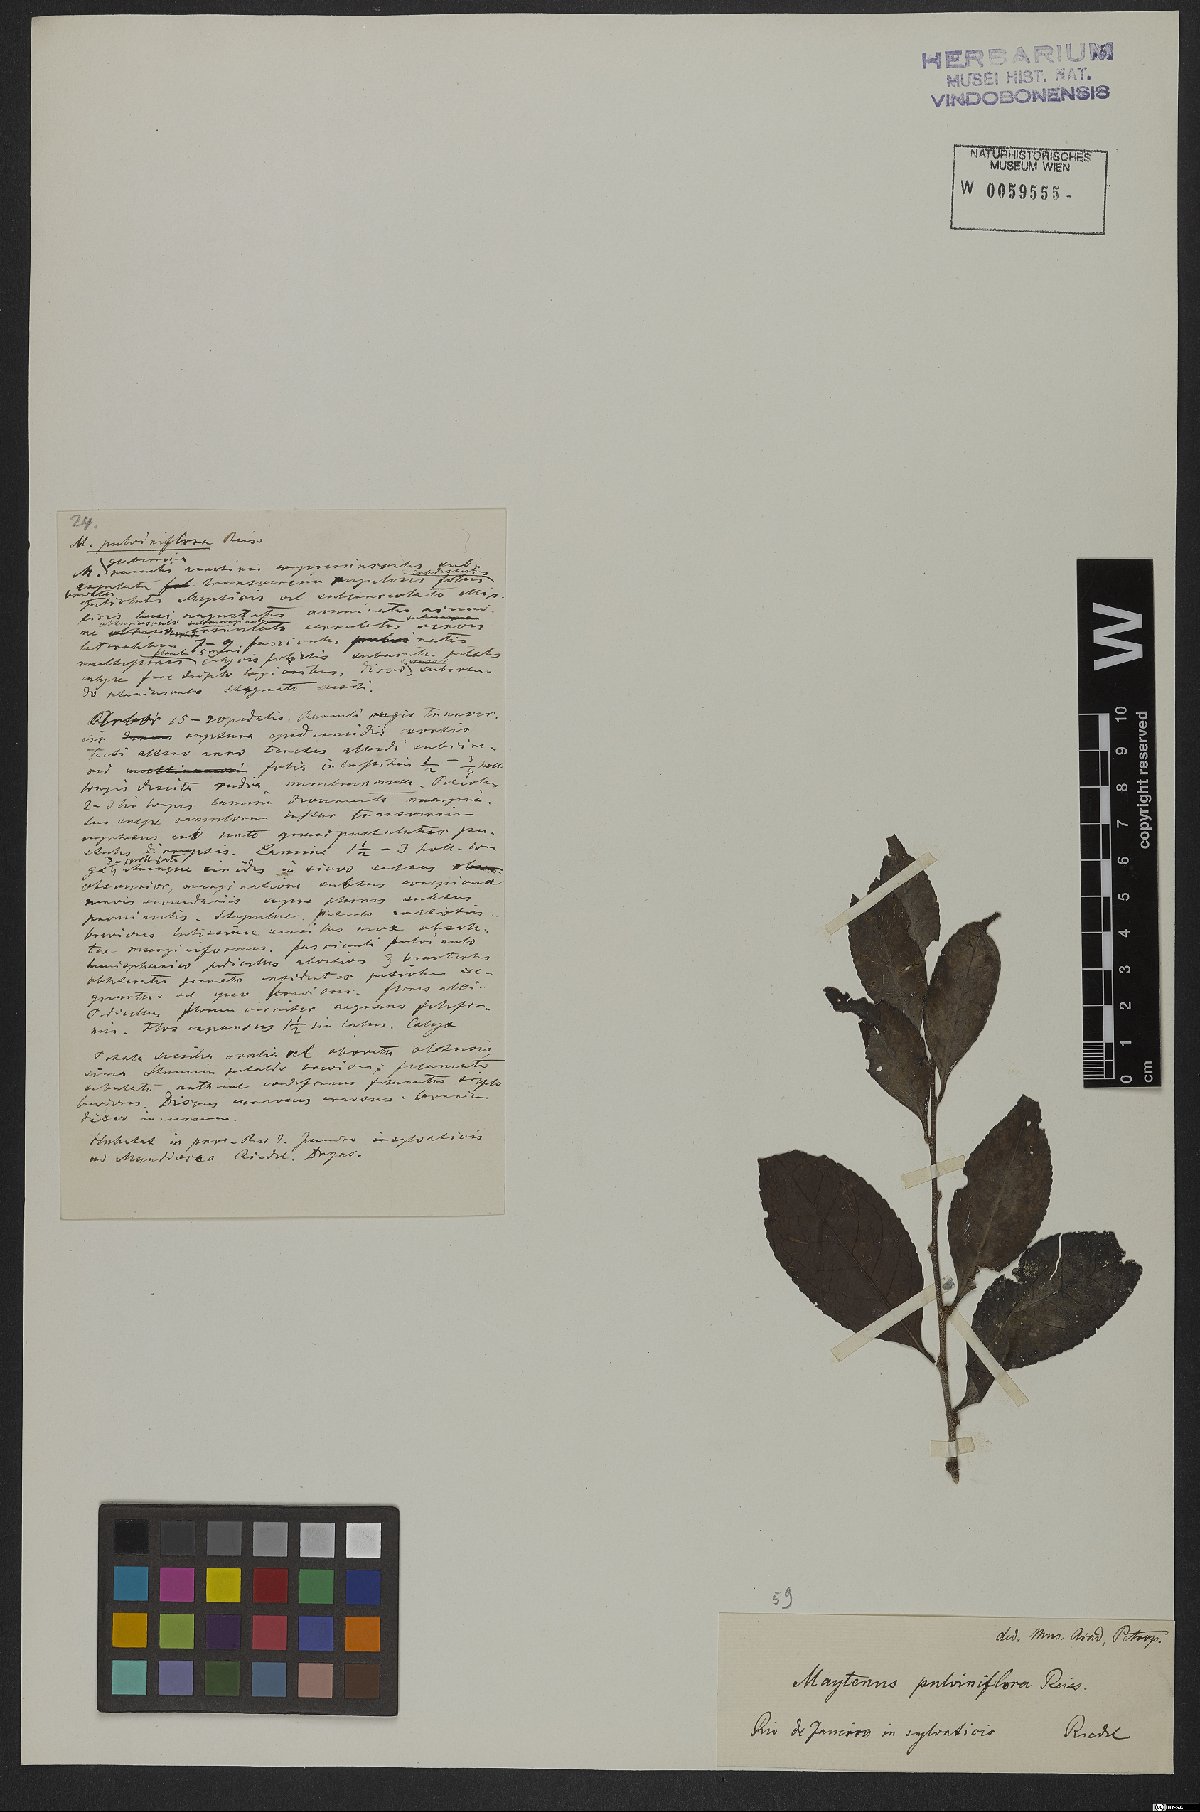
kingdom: Plantae
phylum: Tracheophyta
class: Magnoliopsida
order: Celastrales
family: Celastraceae
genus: Monteverdia
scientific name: Monteverdia evonymoides
